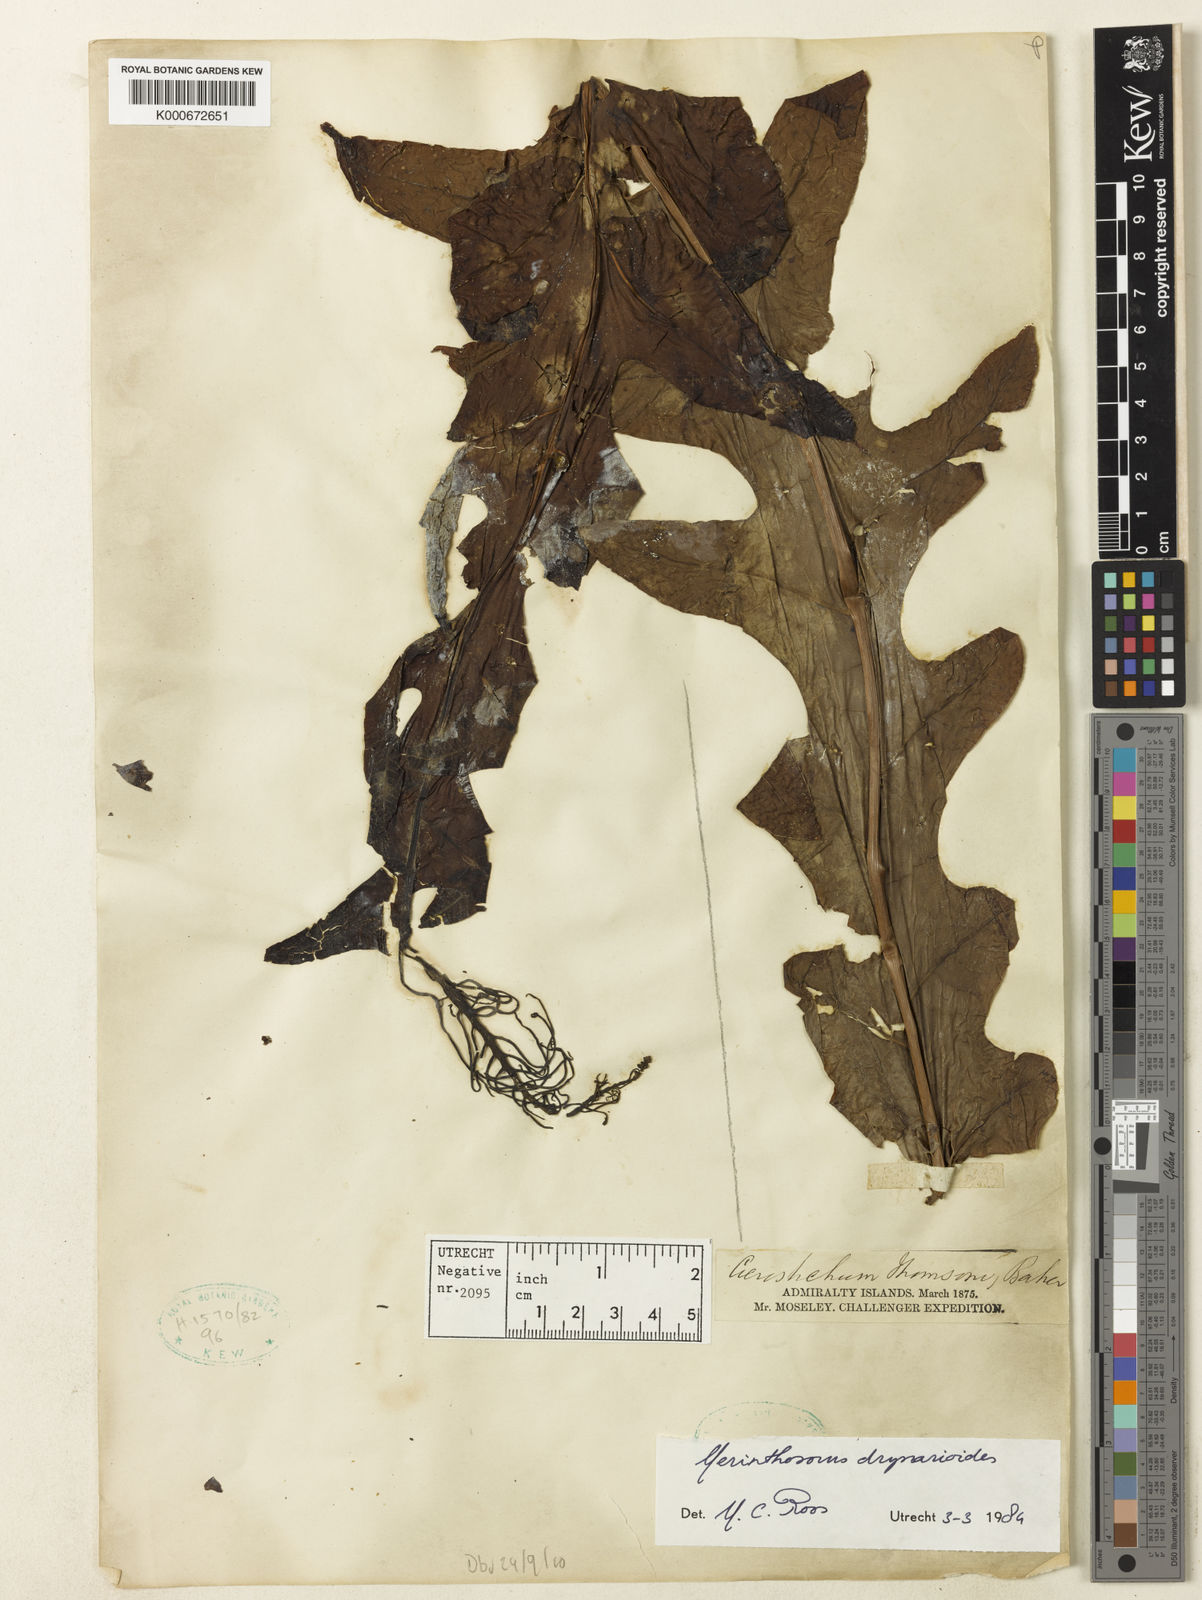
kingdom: Plantae
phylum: Tracheophyta
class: Polypodiopsida
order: Polypodiales
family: Polypodiaceae
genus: Drynaria
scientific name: Drynaria drynarioides
